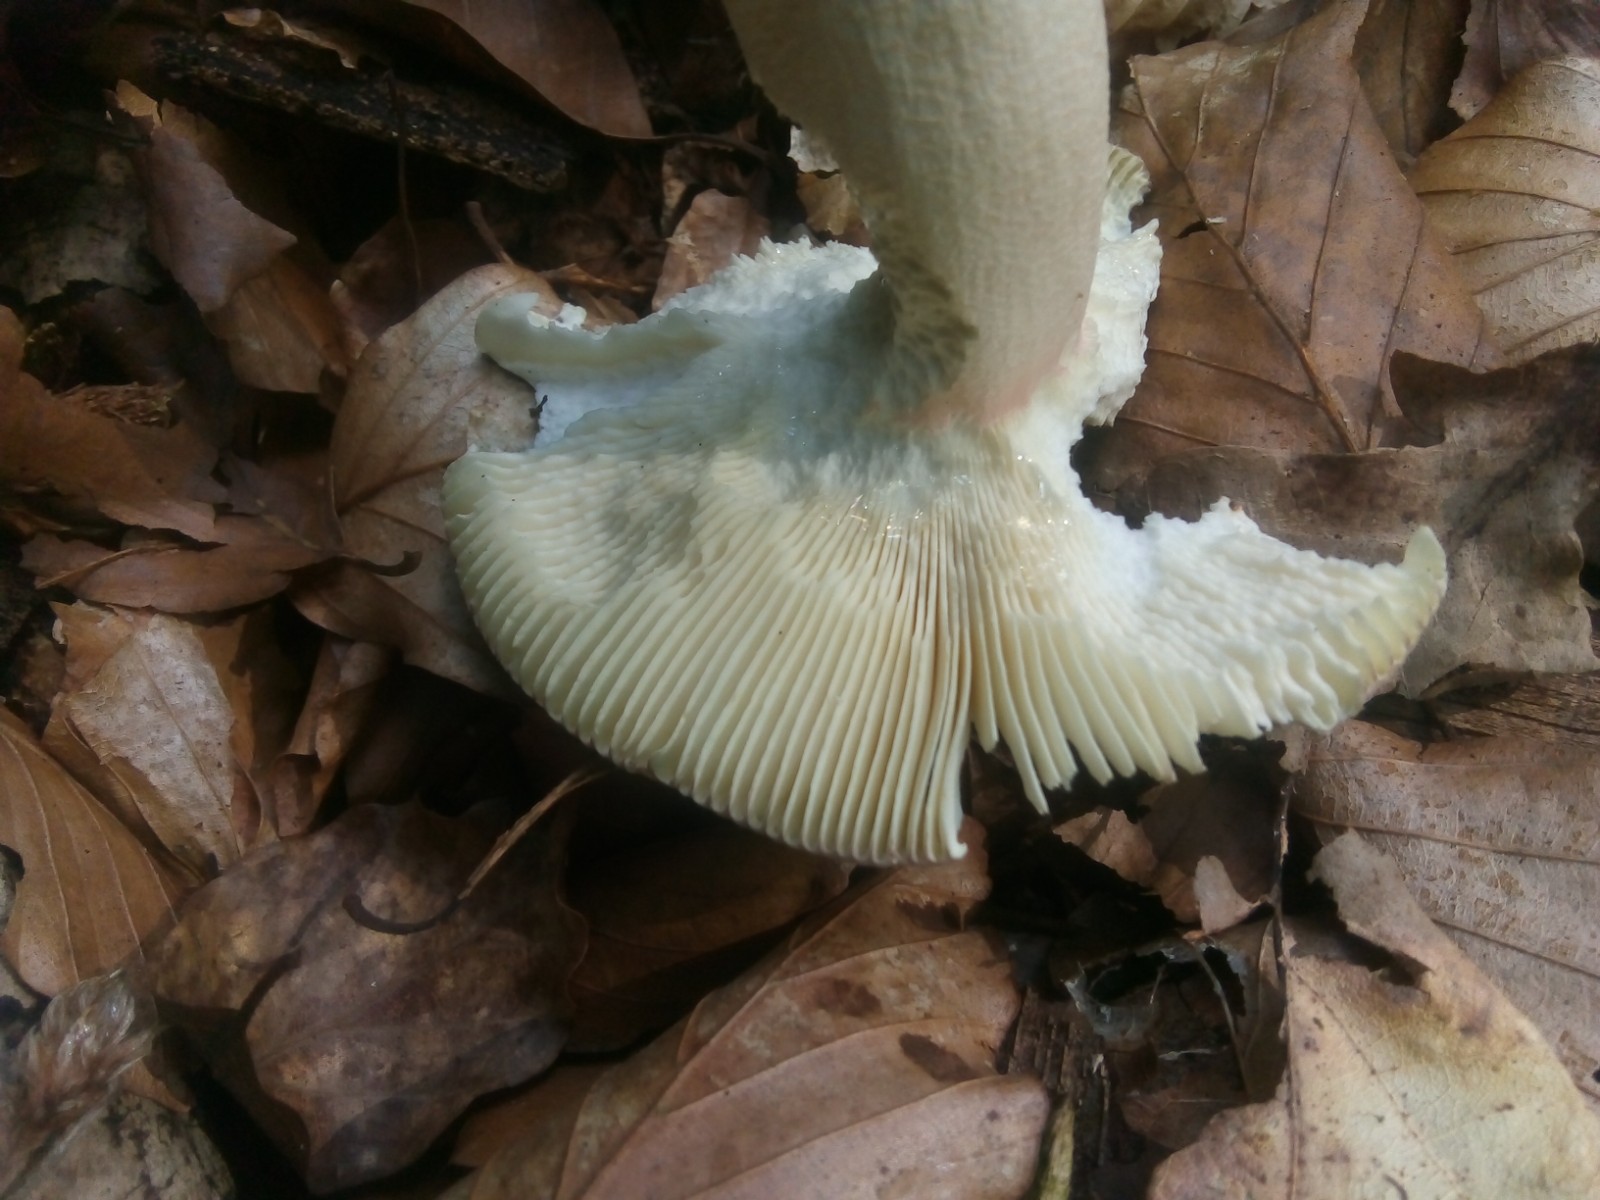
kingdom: Fungi
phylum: Basidiomycota
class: Agaricomycetes
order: Russulales
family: Russulaceae
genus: Russula
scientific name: Russula olivacea
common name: stor skørhat
